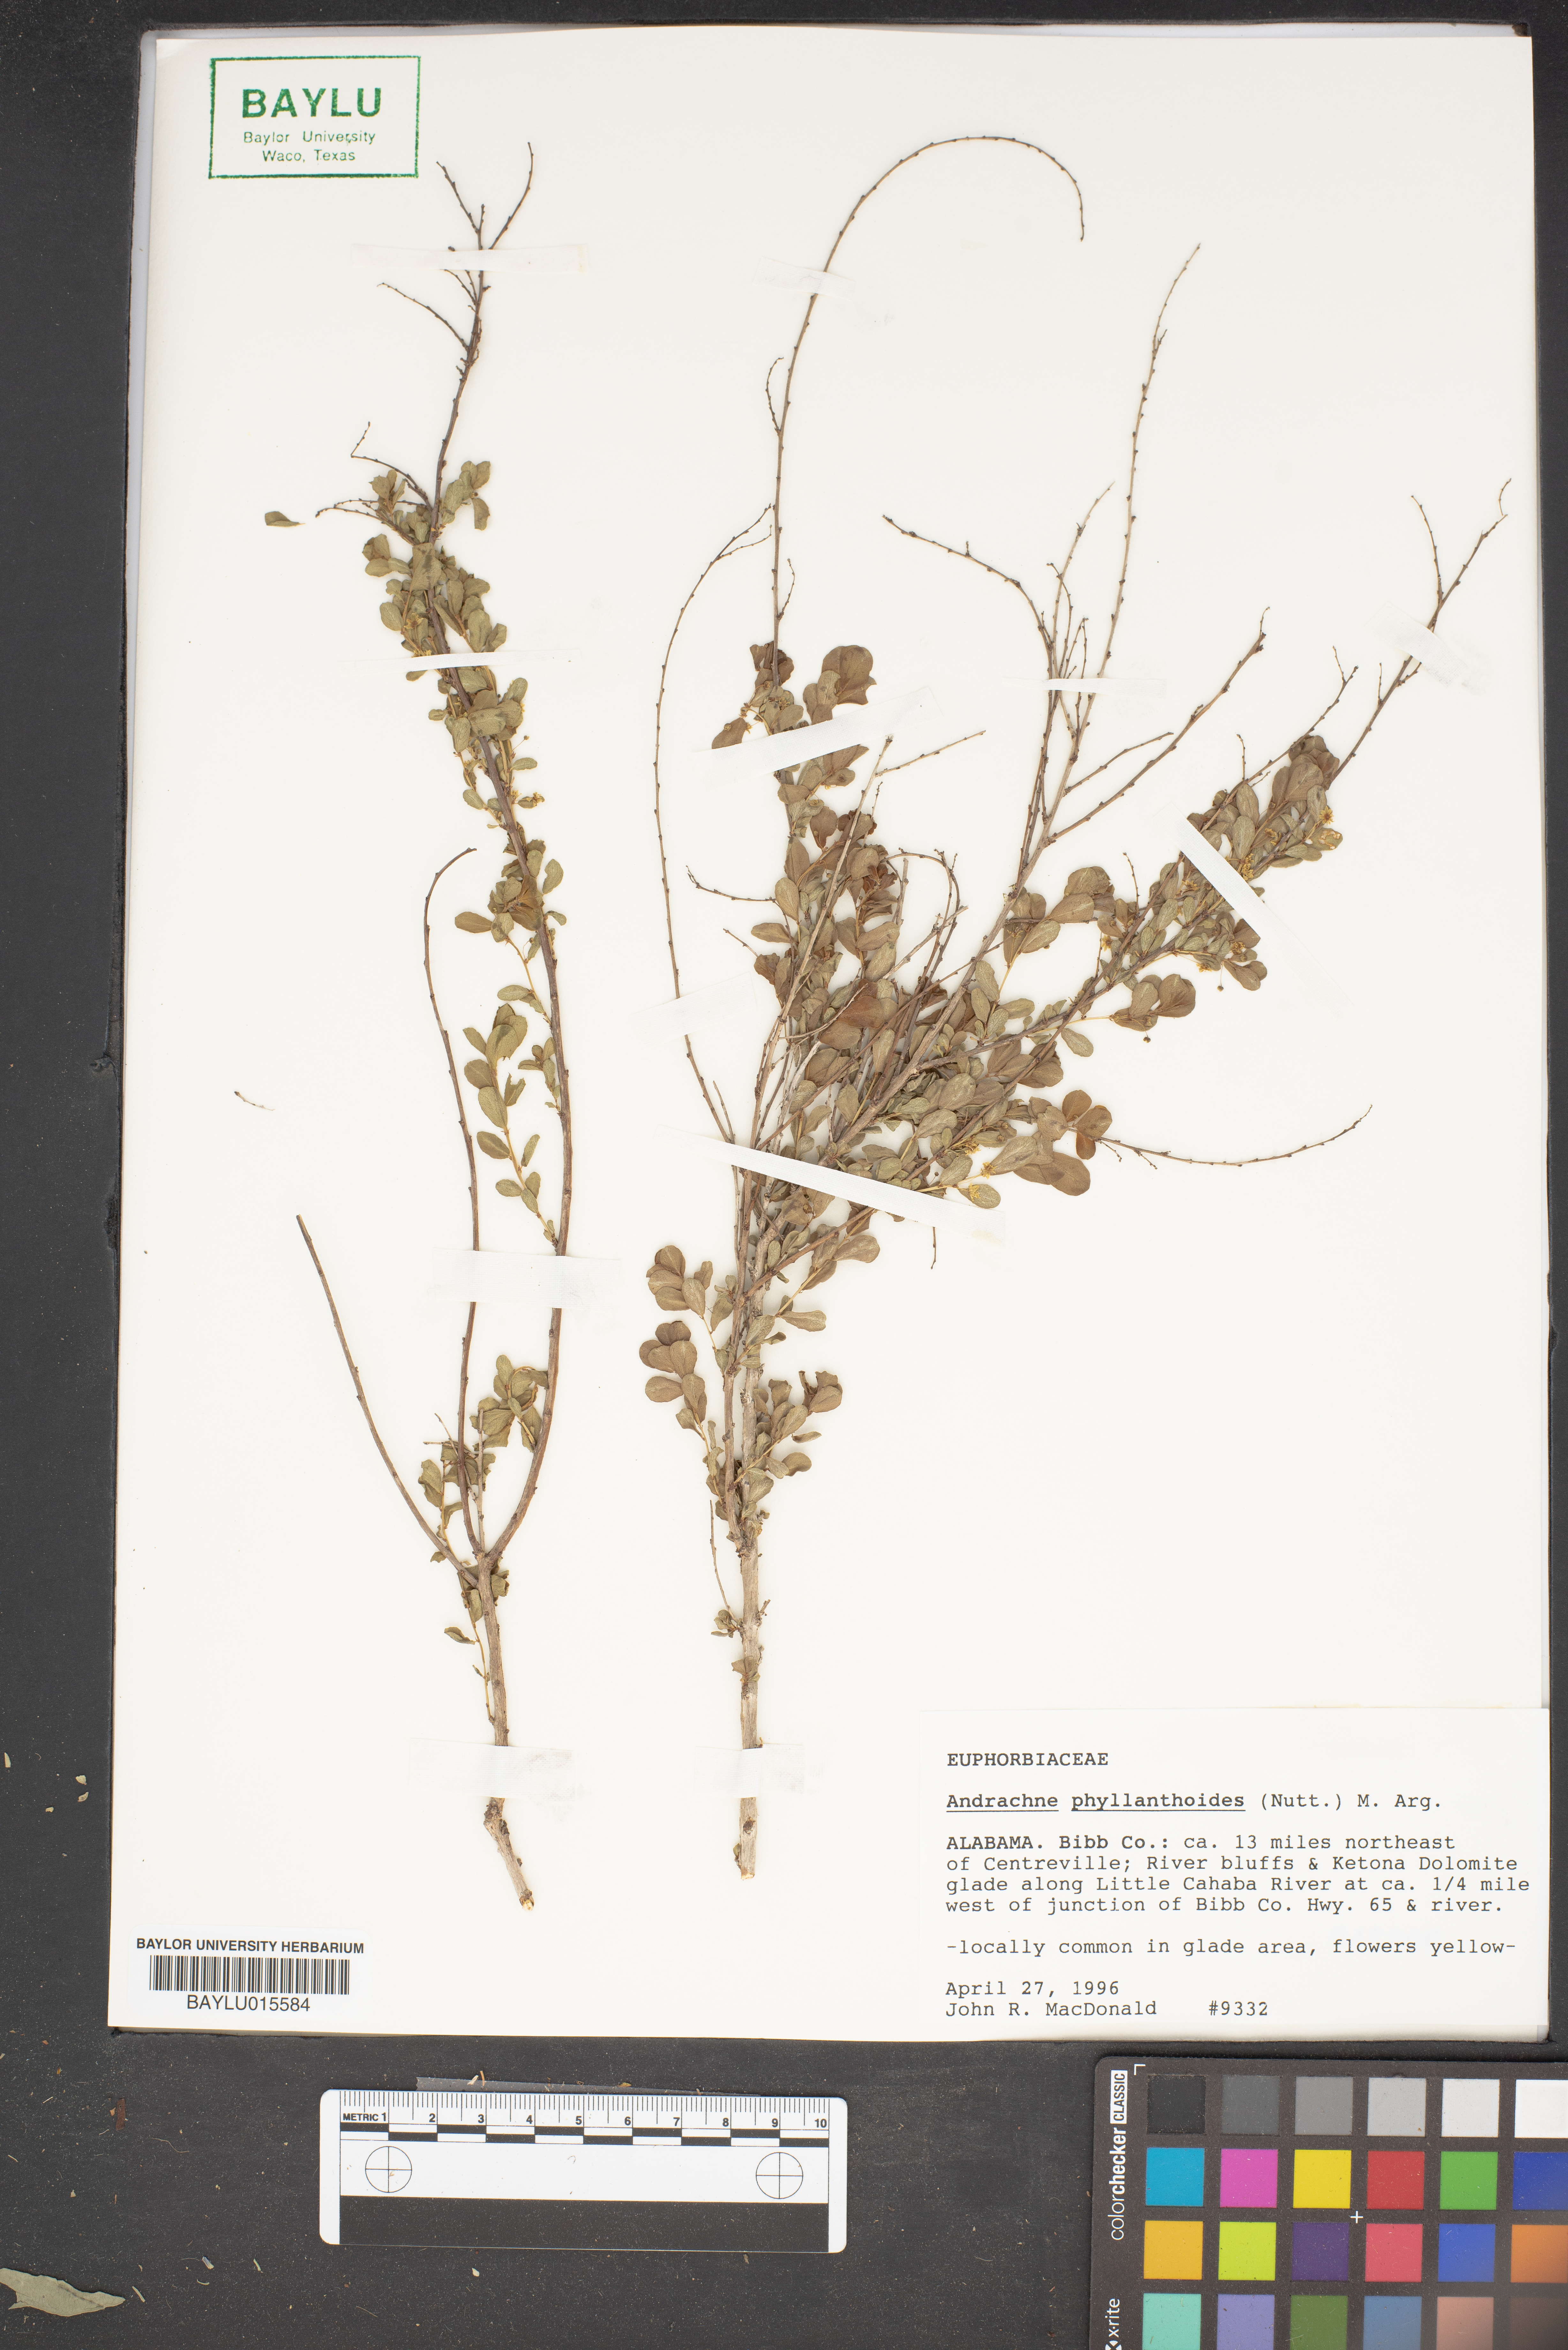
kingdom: Plantae
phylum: Tracheophyta
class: Magnoliopsida
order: Malpighiales
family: Phyllanthaceae
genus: Phyllanthopsis
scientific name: Phyllanthopsis phyllanthoides
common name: Missouri maidenbush
